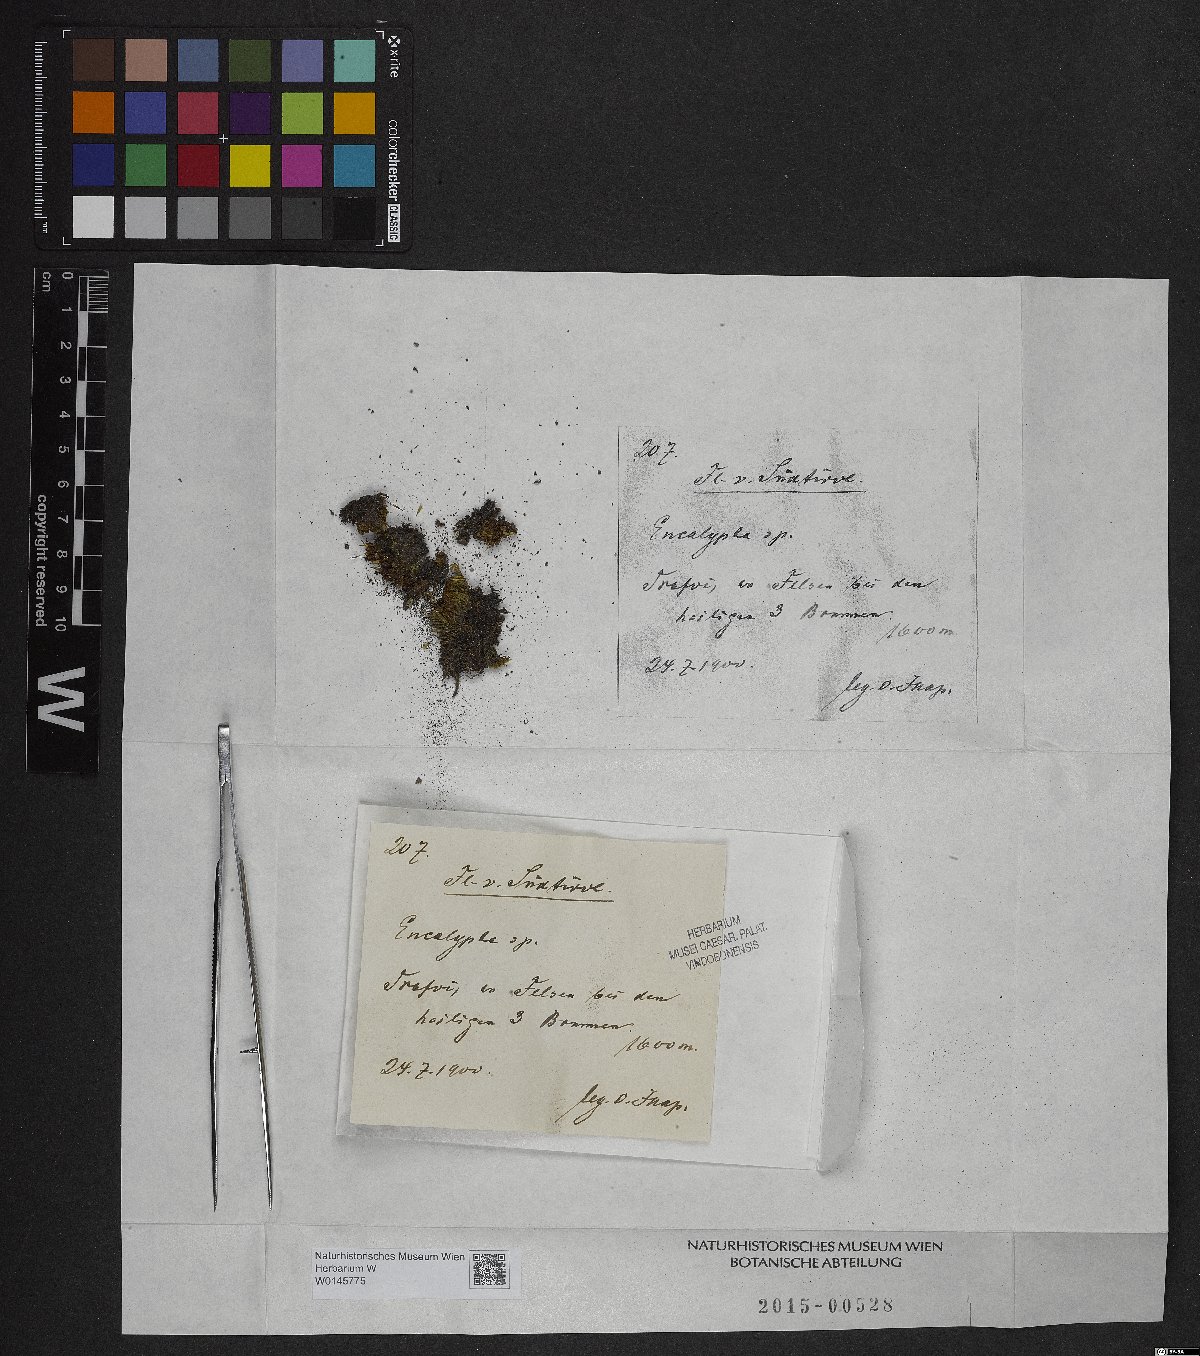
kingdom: Plantae
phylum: Bryophyta
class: Bryopsida
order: Encalyptales
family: Encalyptaceae
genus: Encalypta
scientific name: Encalypta
